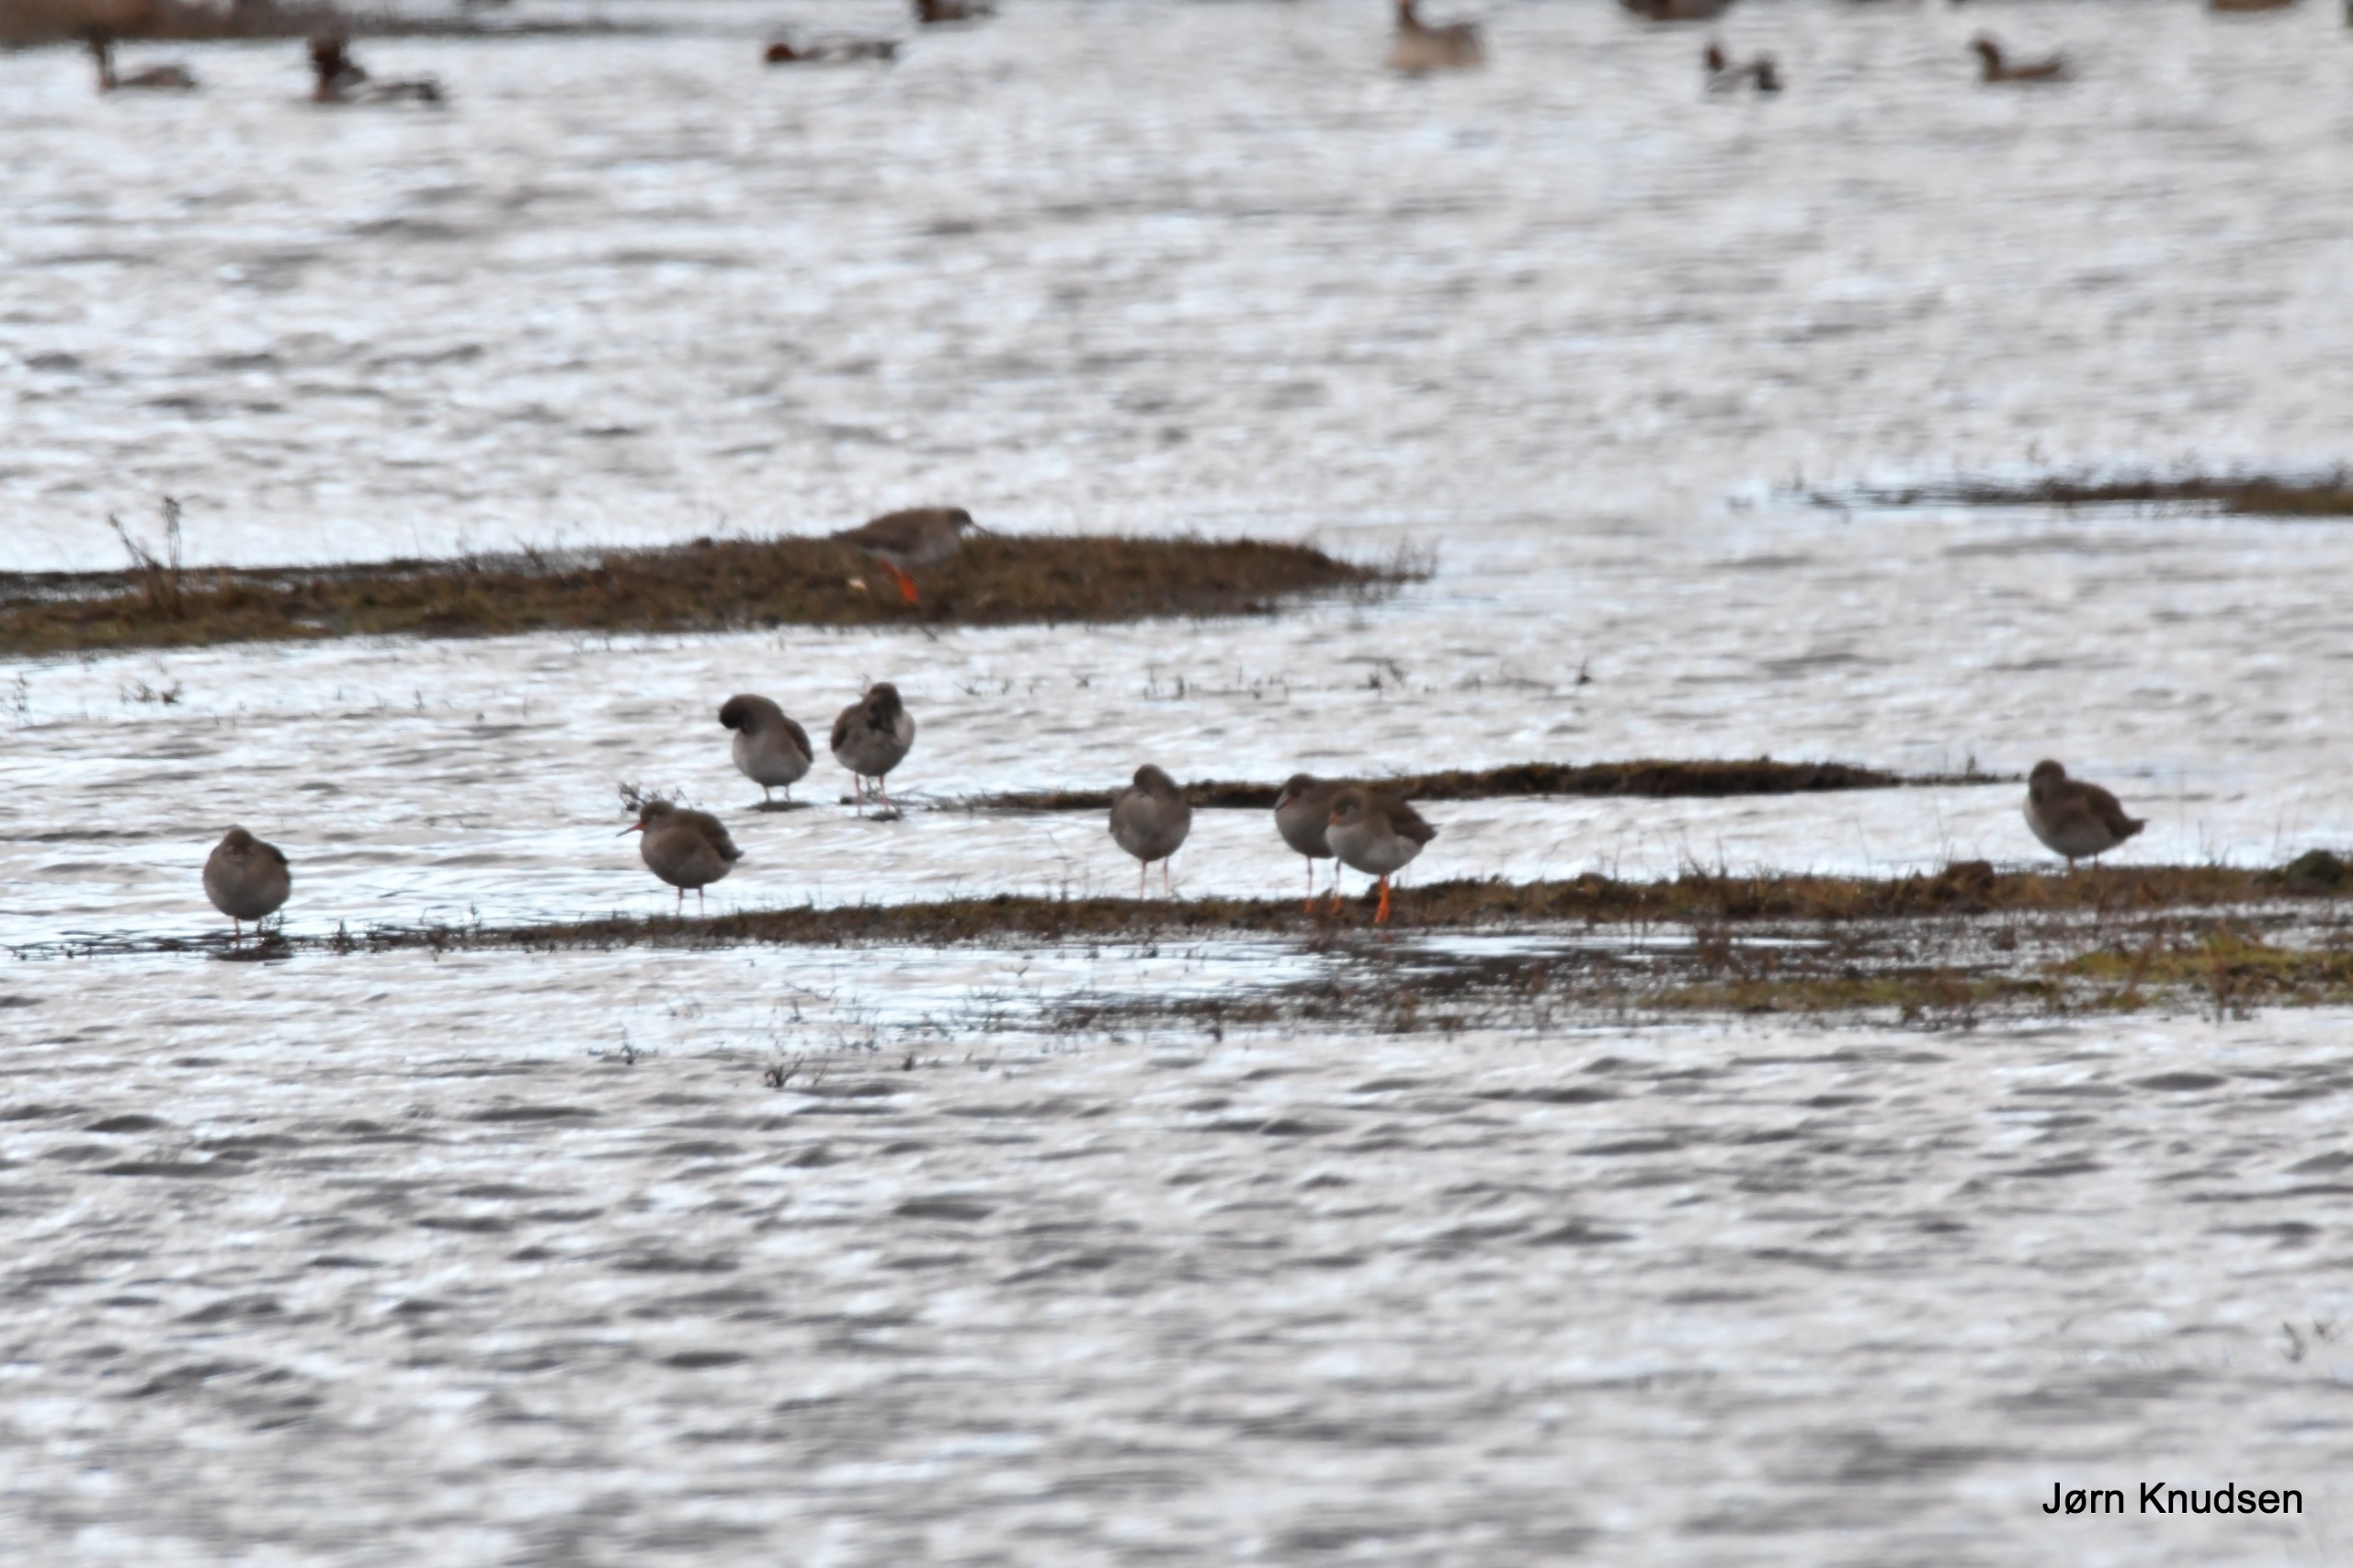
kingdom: Animalia
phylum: Chordata
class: Aves
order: Charadriiformes
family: Scolopacidae
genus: Tringa
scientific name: Tringa totanus
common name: Rødben
